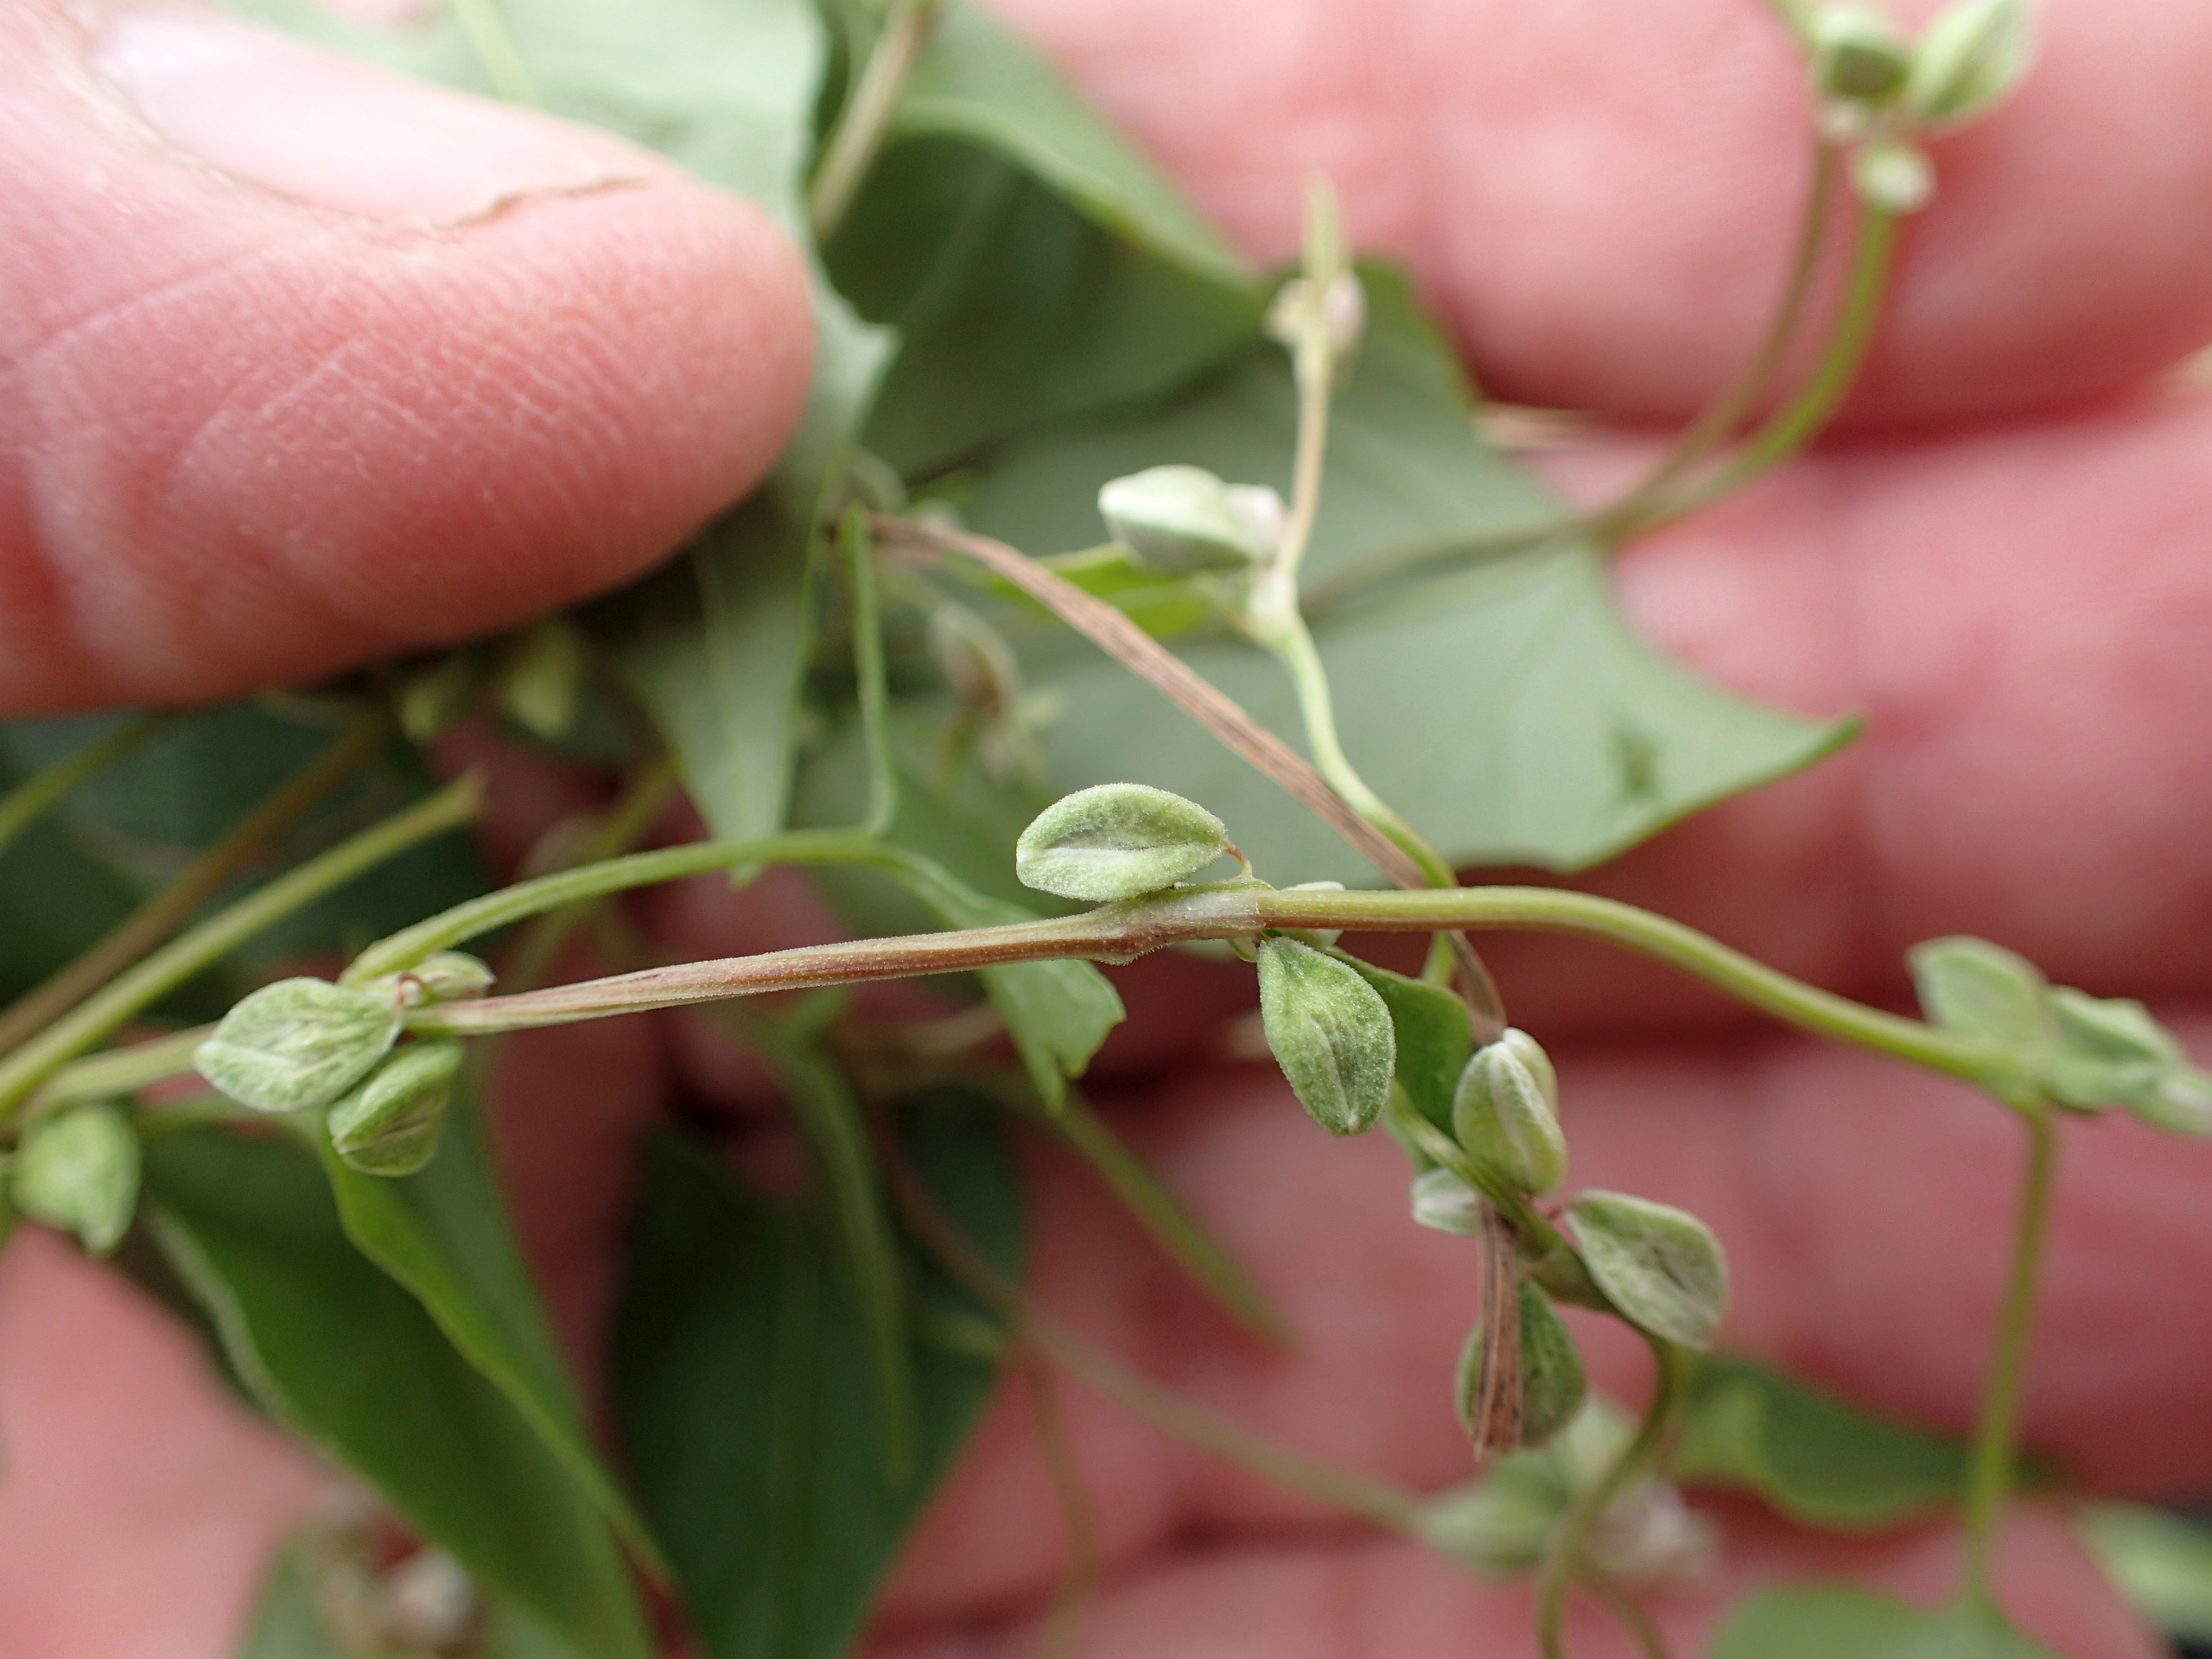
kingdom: Plantae
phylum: Tracheophyta
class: Magnoliopsida
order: Caryophyllales
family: Polygonaceae
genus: Fallopia
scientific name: Fallopia convolvulus
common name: Snerle-pileurt
